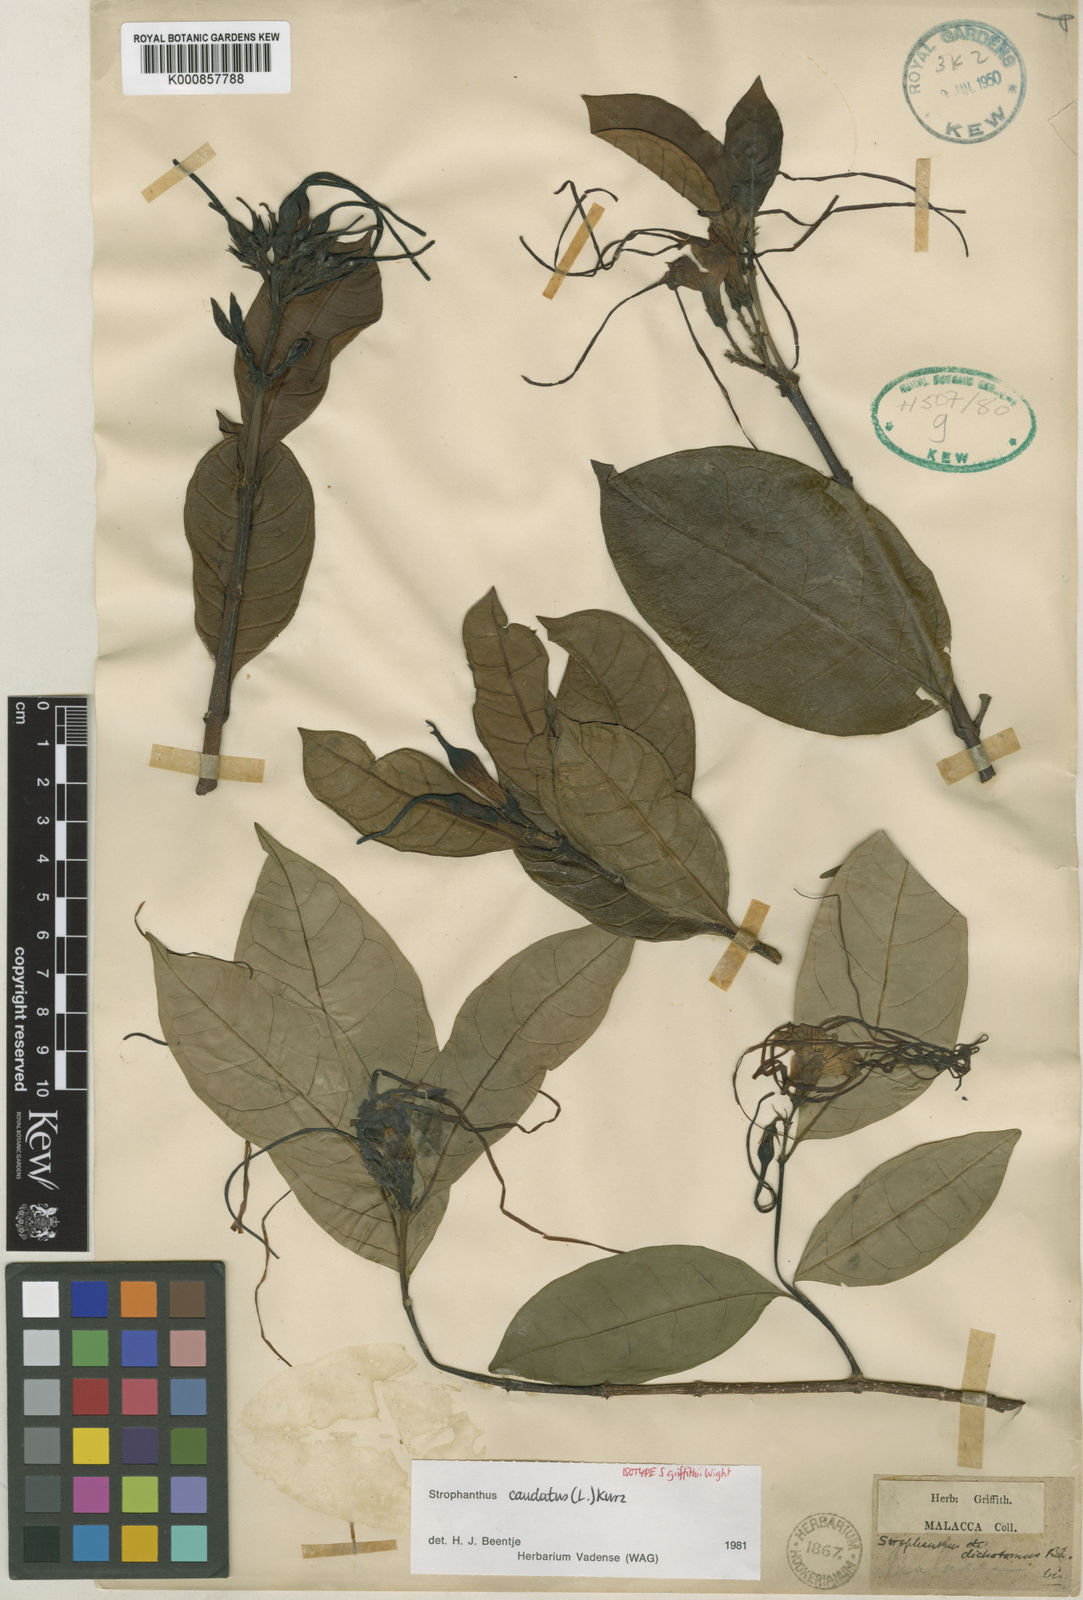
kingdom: Plantae
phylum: Tracheophyta
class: Magnoliopsida
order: Gentianales
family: Apocynaceae
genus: Strophanthus
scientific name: Strophanthus caudatus
